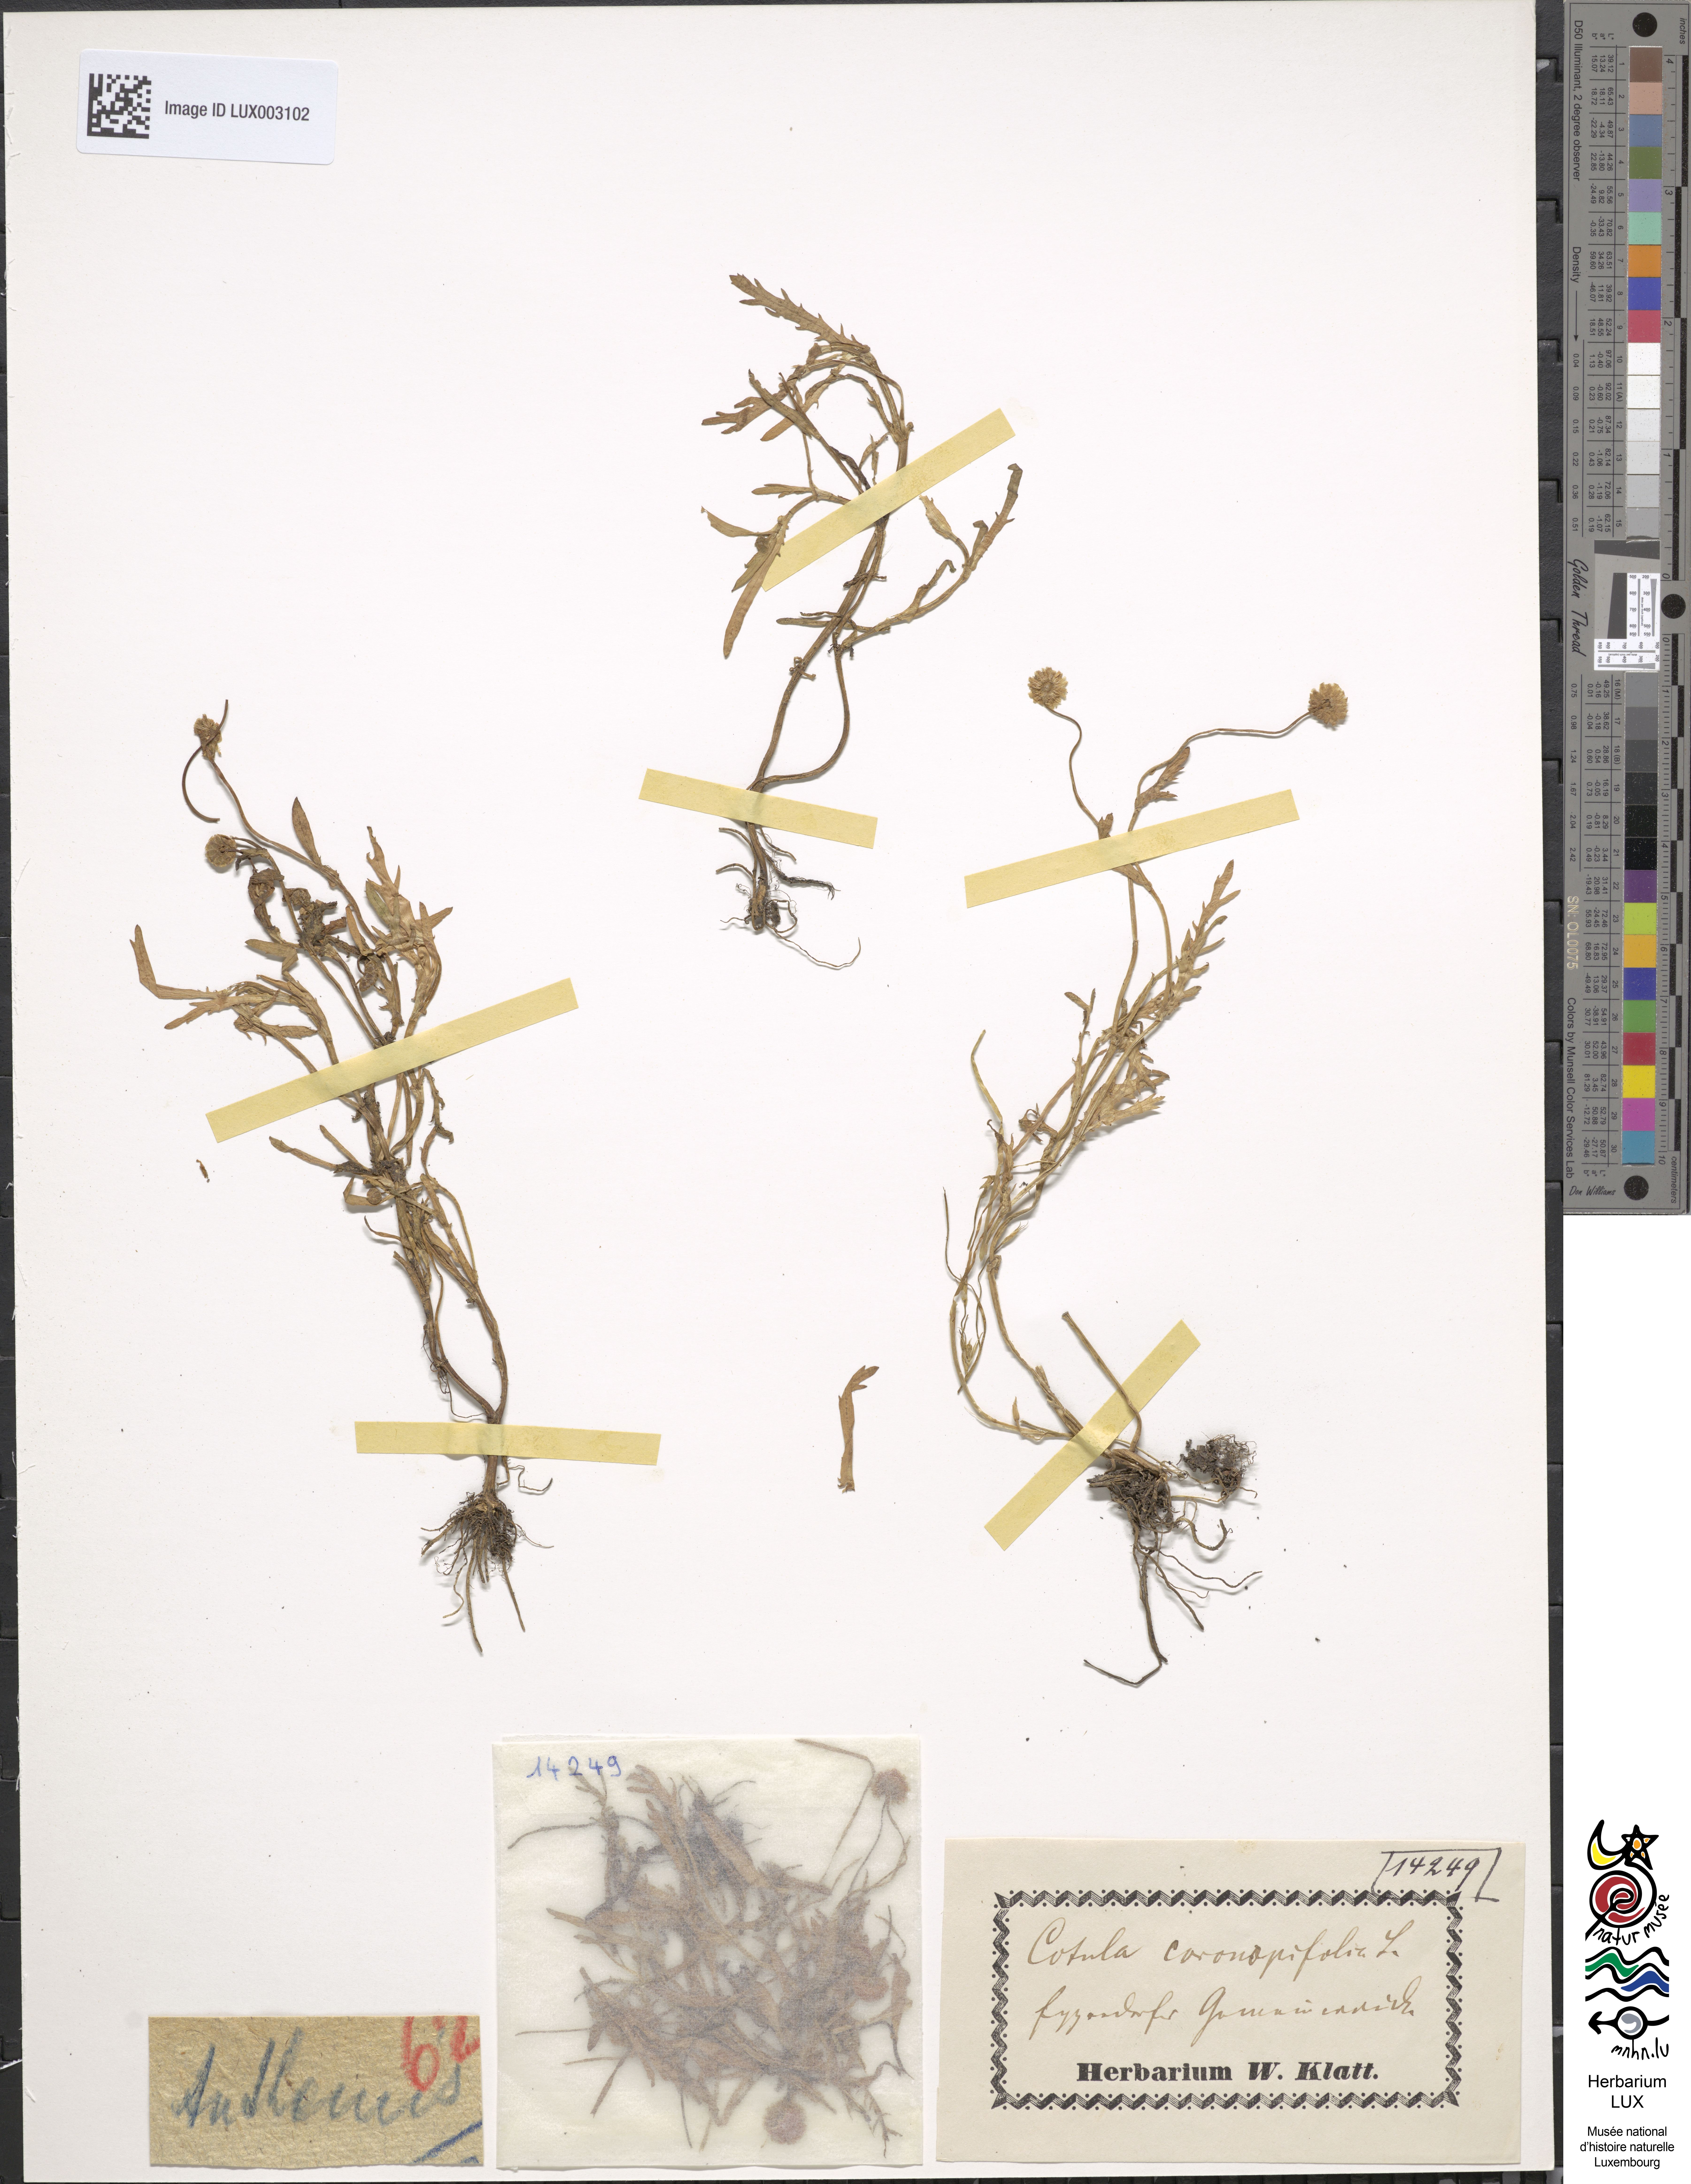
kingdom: Plantae
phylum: Tracheophyta
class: Magnoliopsida
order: Asterales
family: Asteraceae
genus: Cotula
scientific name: Cotula coronopifolia
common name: Buttonweed
